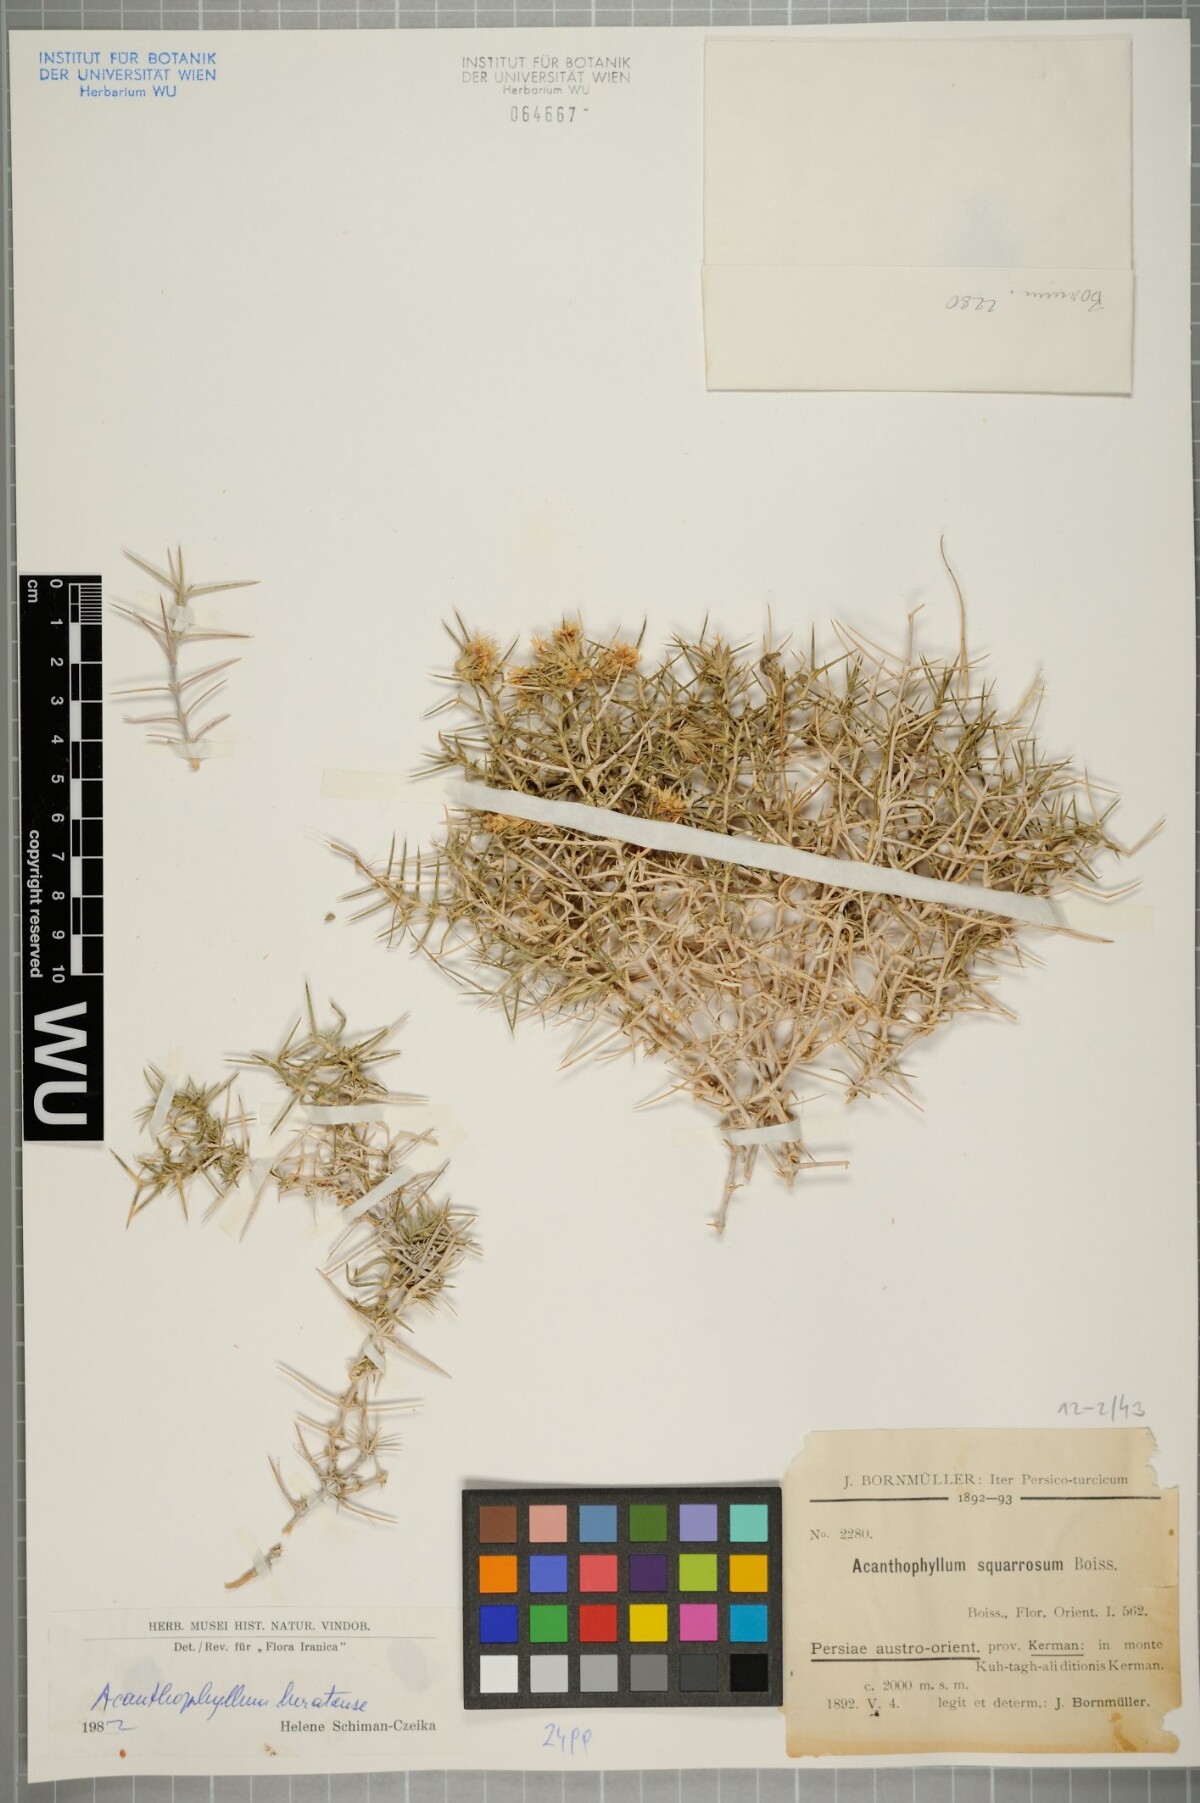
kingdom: Plantae
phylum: Tracheophyta
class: Magnoliopsida
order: Caryophyllales
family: Caryophyllaceae
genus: Acanthophyllum
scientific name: Acanthophyllum heratense
